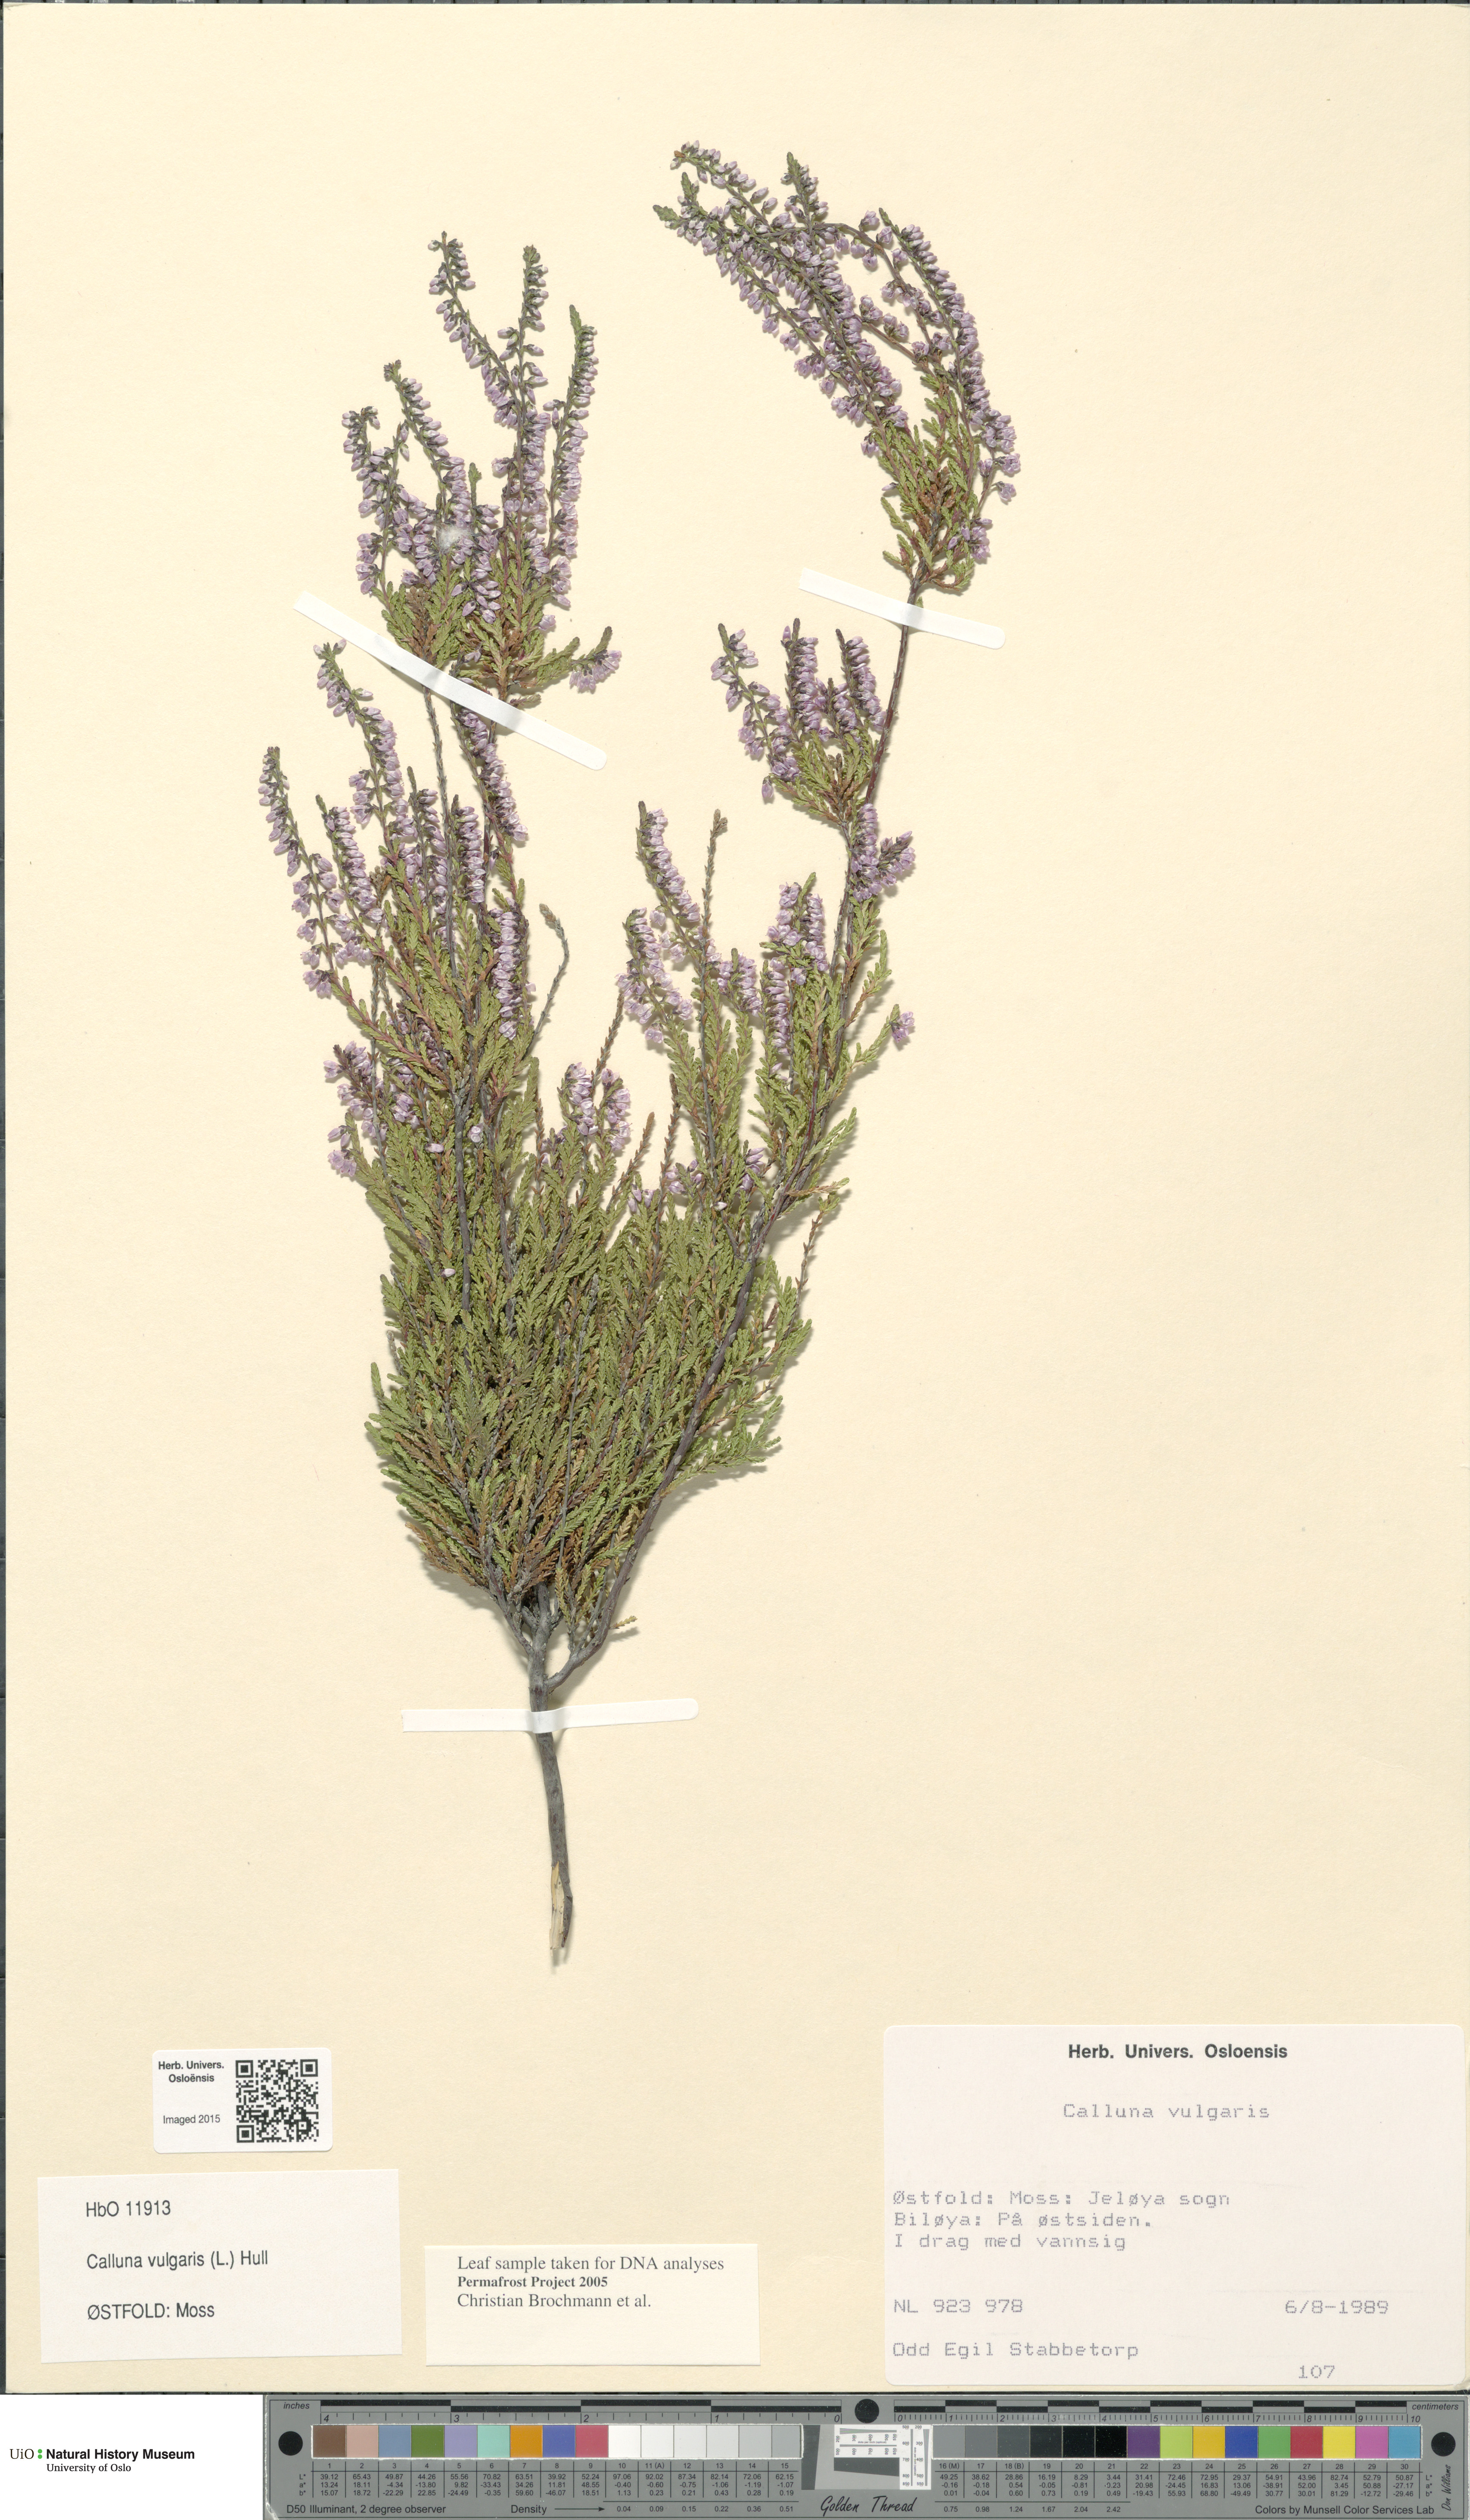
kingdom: Plantae
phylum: Tracheophyta
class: Magnoliopsida
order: Ericales
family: Ericaceae
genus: Calluna
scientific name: Calluna vulgaris
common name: Heather
